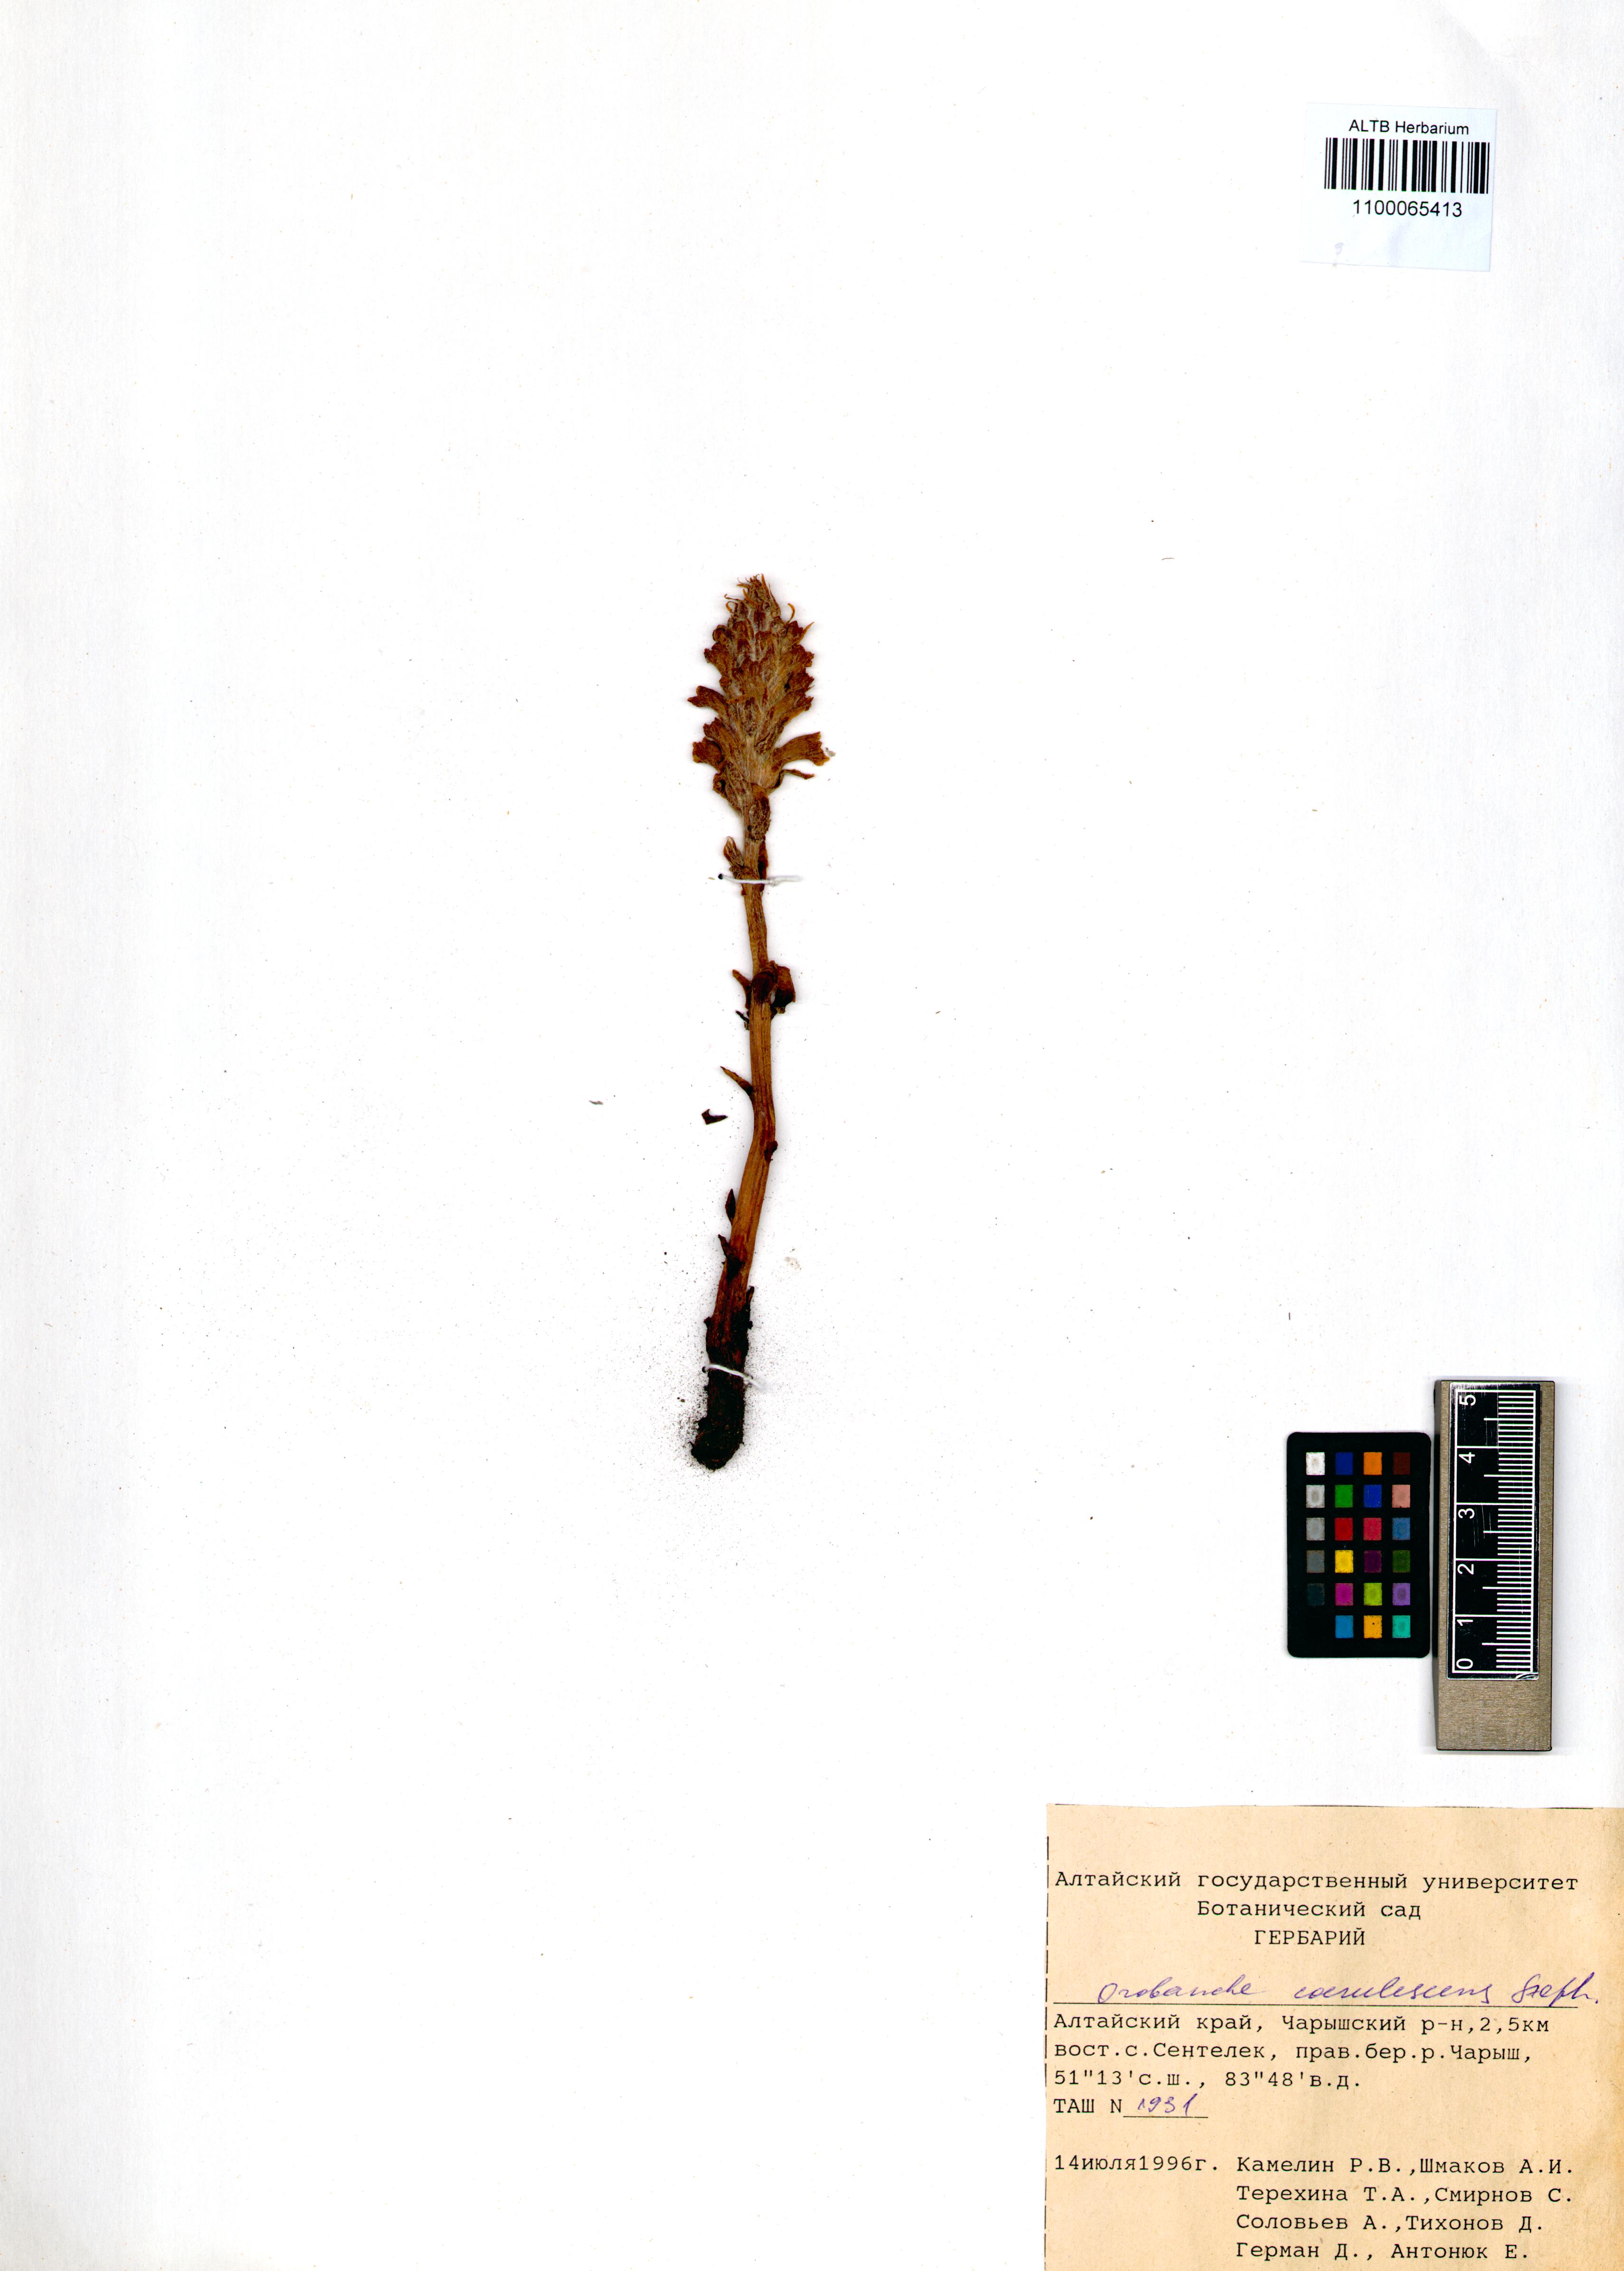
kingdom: Plantae
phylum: Tracheophyta
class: Magnoliopsida
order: Lamiales
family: Orobanchaceae
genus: Orobanche
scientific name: Orobanche coerulescens
